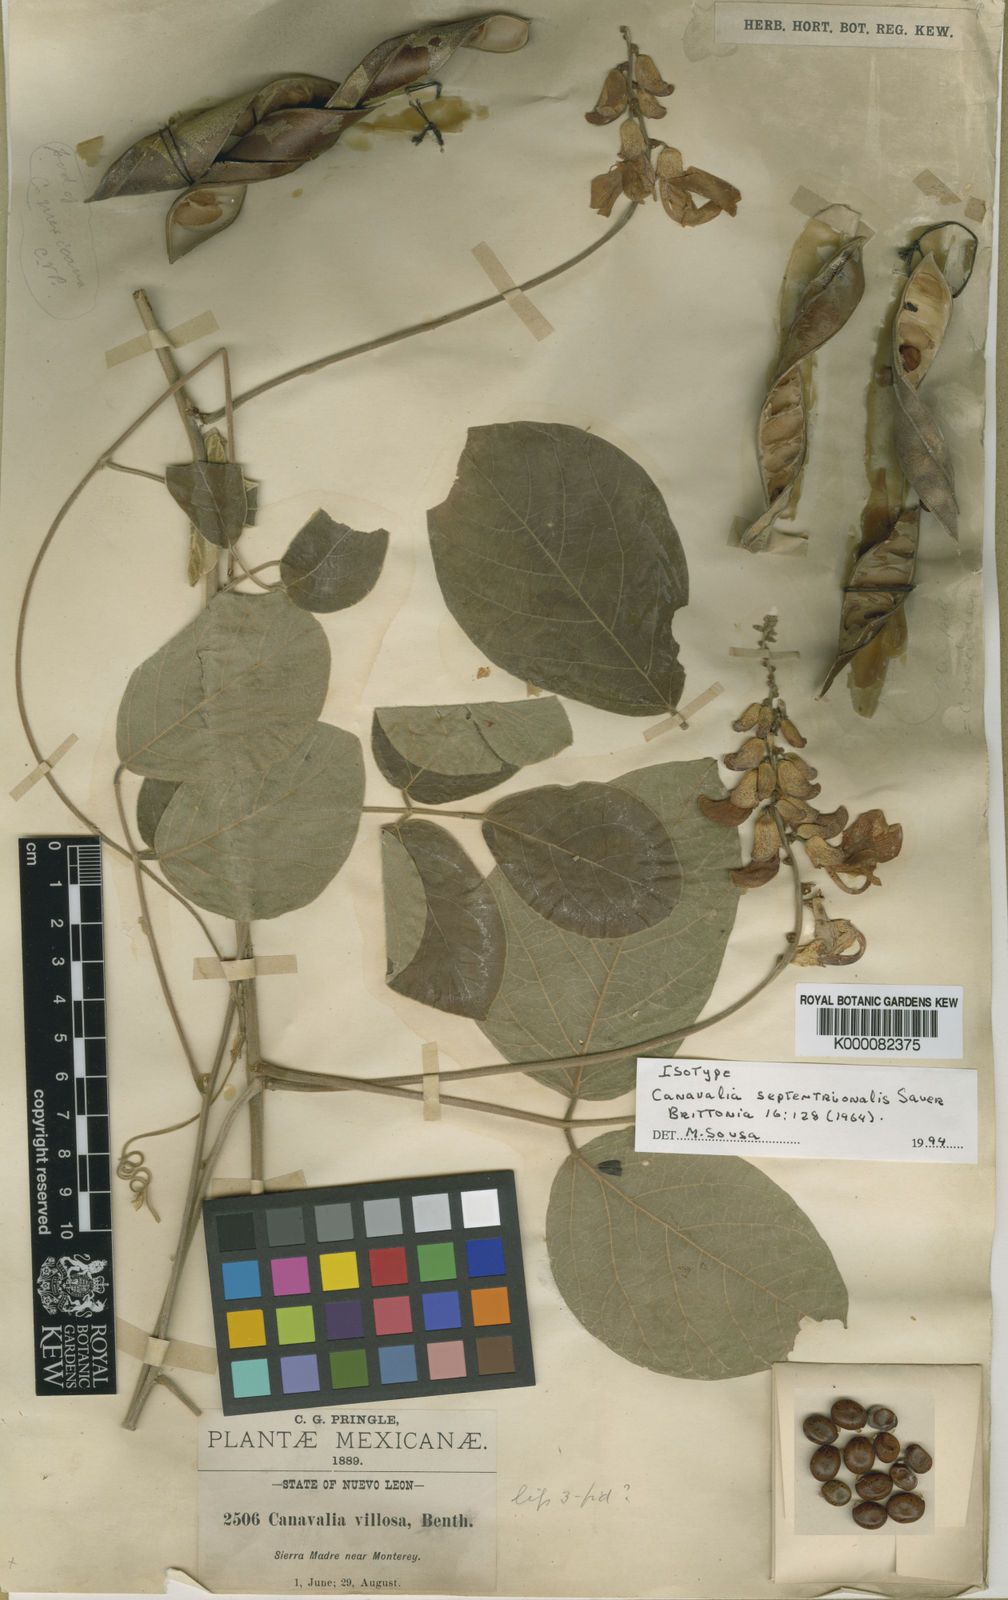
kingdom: Plantae
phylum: Tracheophyta
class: Magnoliopsida
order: Fabales
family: Fabaceae
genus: Canavalia
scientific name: Canavalia septentrionalis
